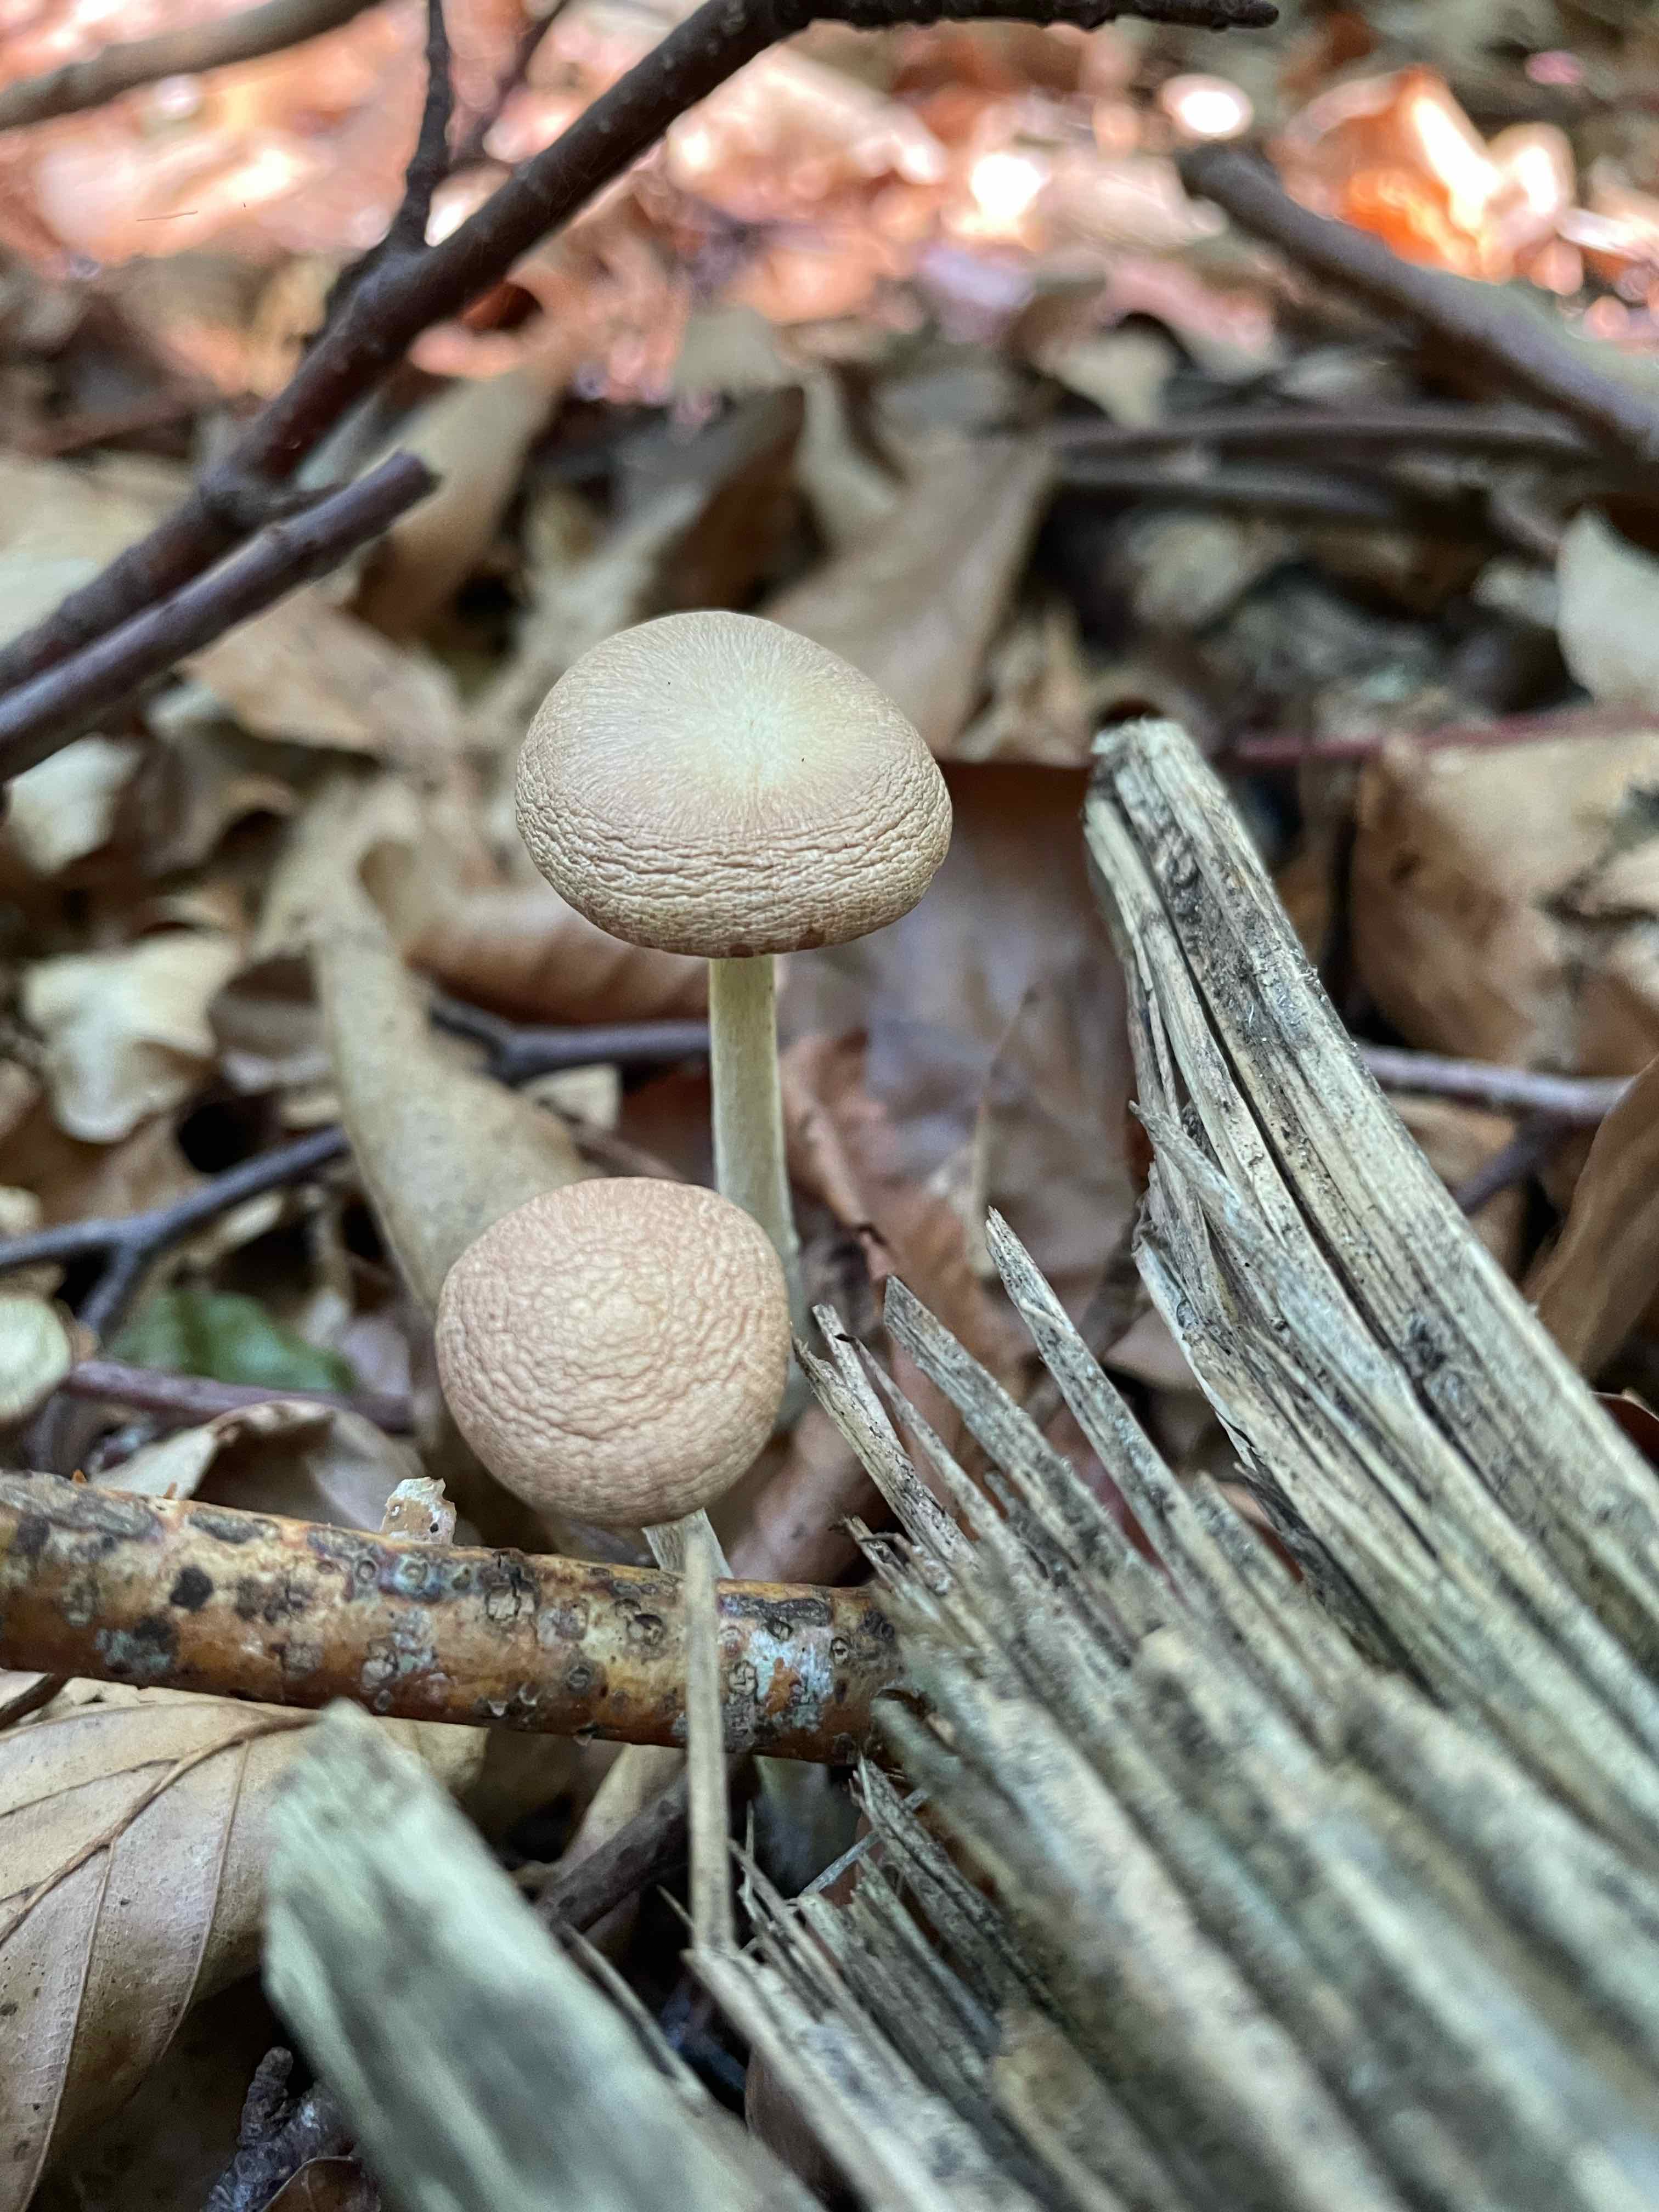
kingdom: Fungi
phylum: Basidiomycota
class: Agaricomycetes
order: Agaricales
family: Omphalotaceae
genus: Collybiopsis
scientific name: Collybiopsis peronata
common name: bestøvlet fladhat
